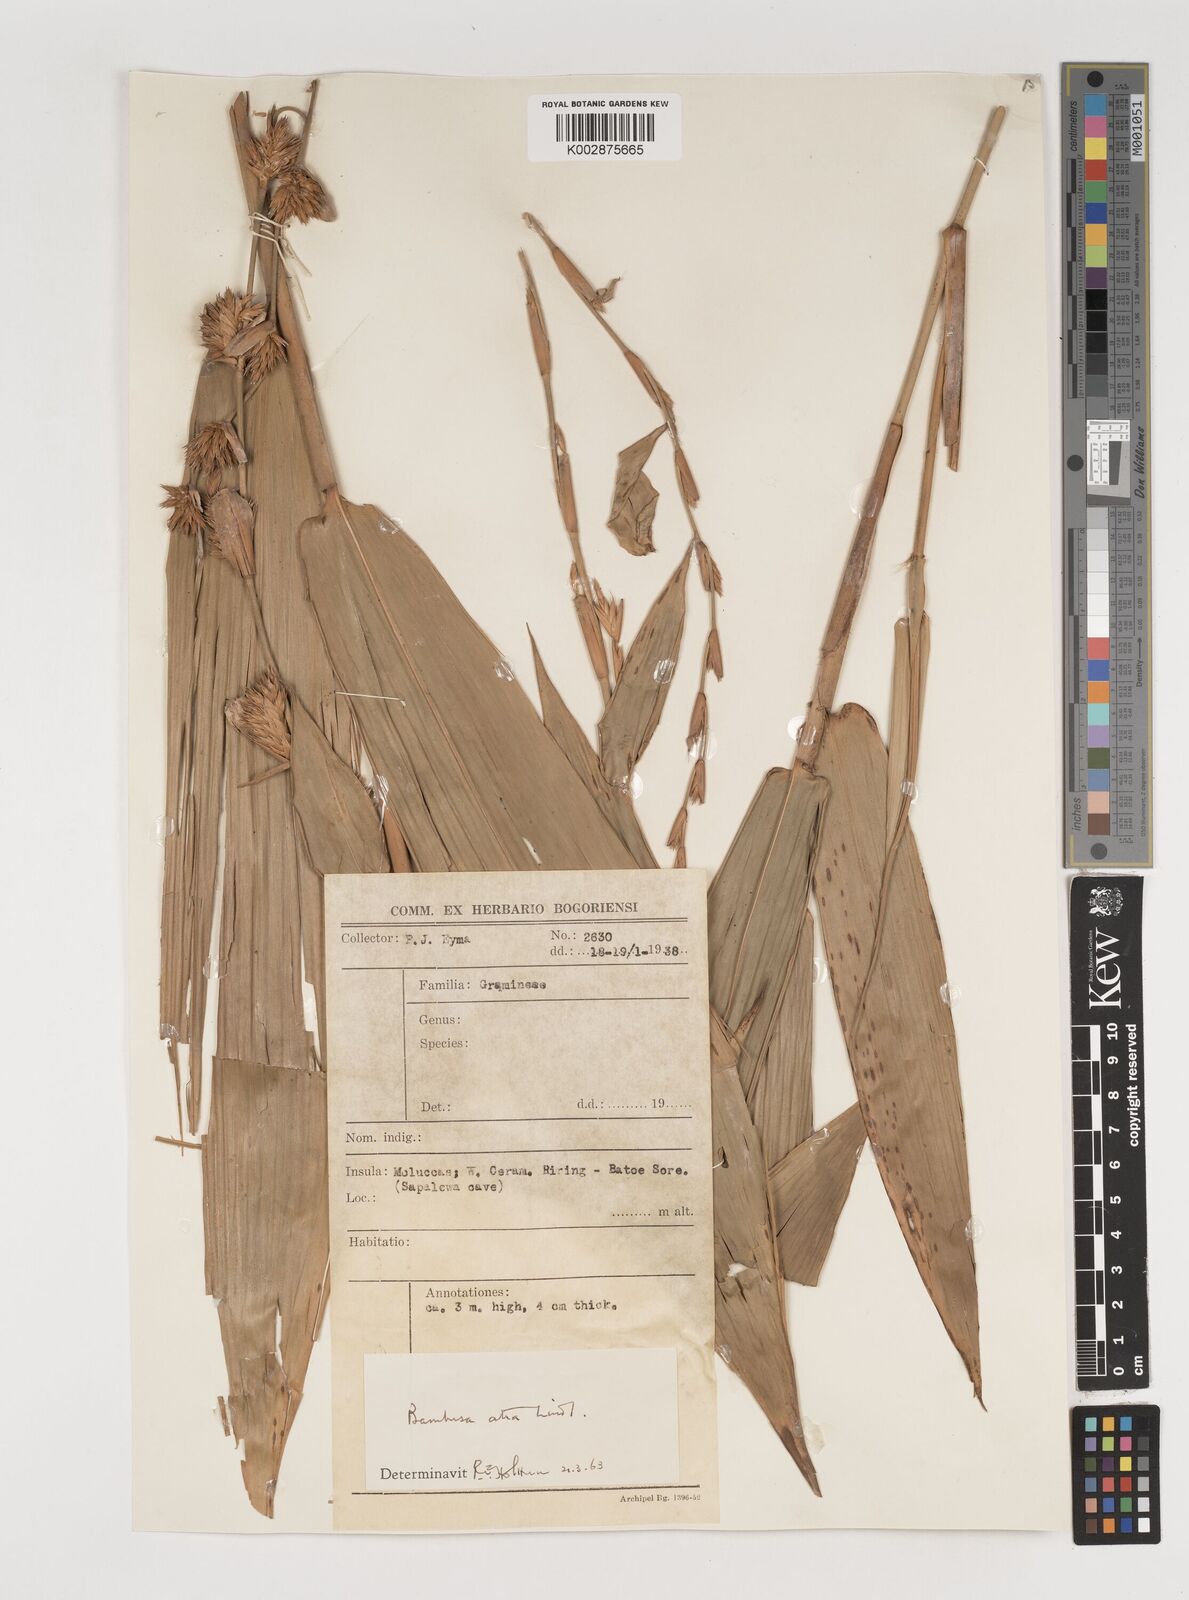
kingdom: Plantae
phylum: Tracheophyta
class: Liliopsida
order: Poales
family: Poaceae
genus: Neololeba
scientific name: Neololeba atra
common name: Cape bamboo
